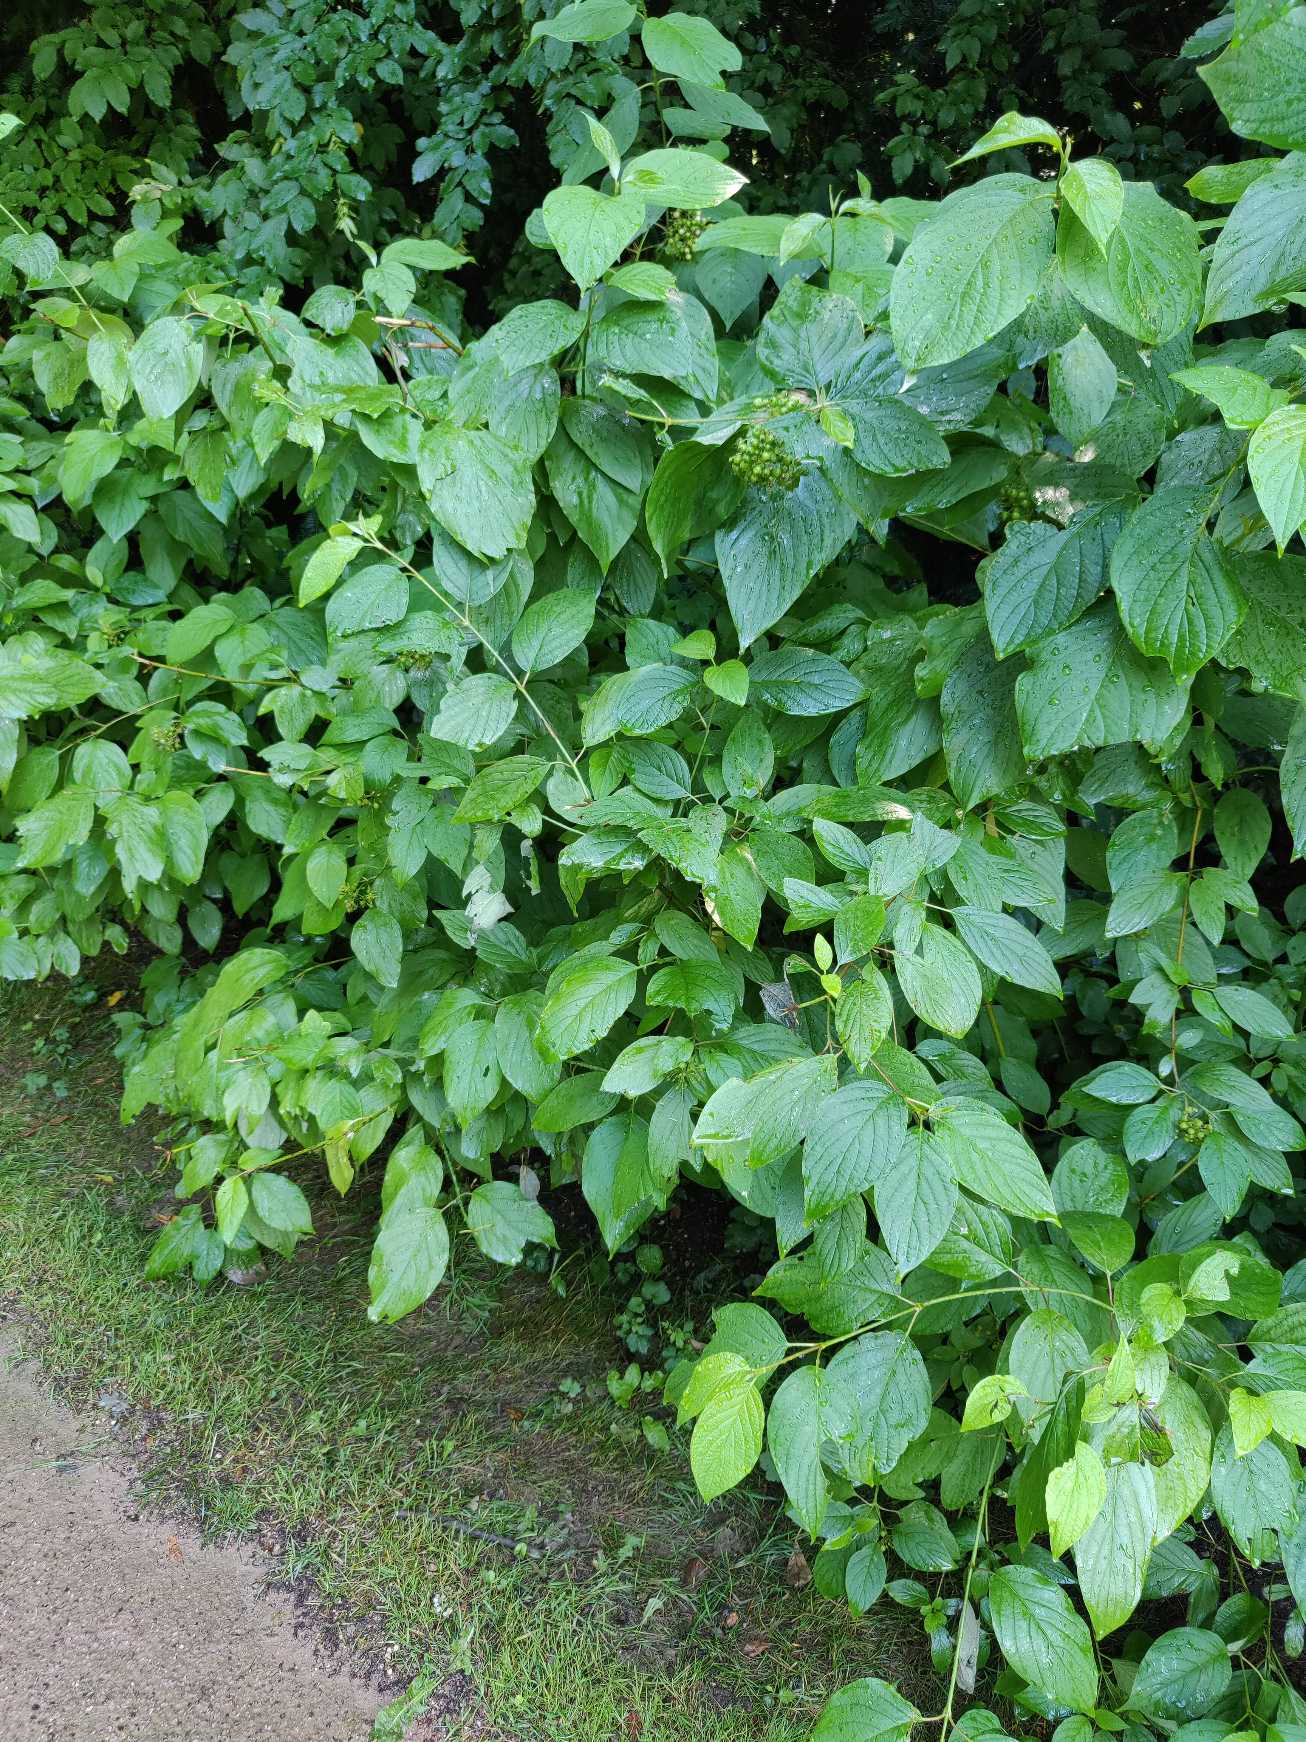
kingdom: Plantae
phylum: Tracheophyta
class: Magnoliopsida
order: Cornales
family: Cornaceae
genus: Cornus
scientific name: Cornus
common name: Kornelslægten
